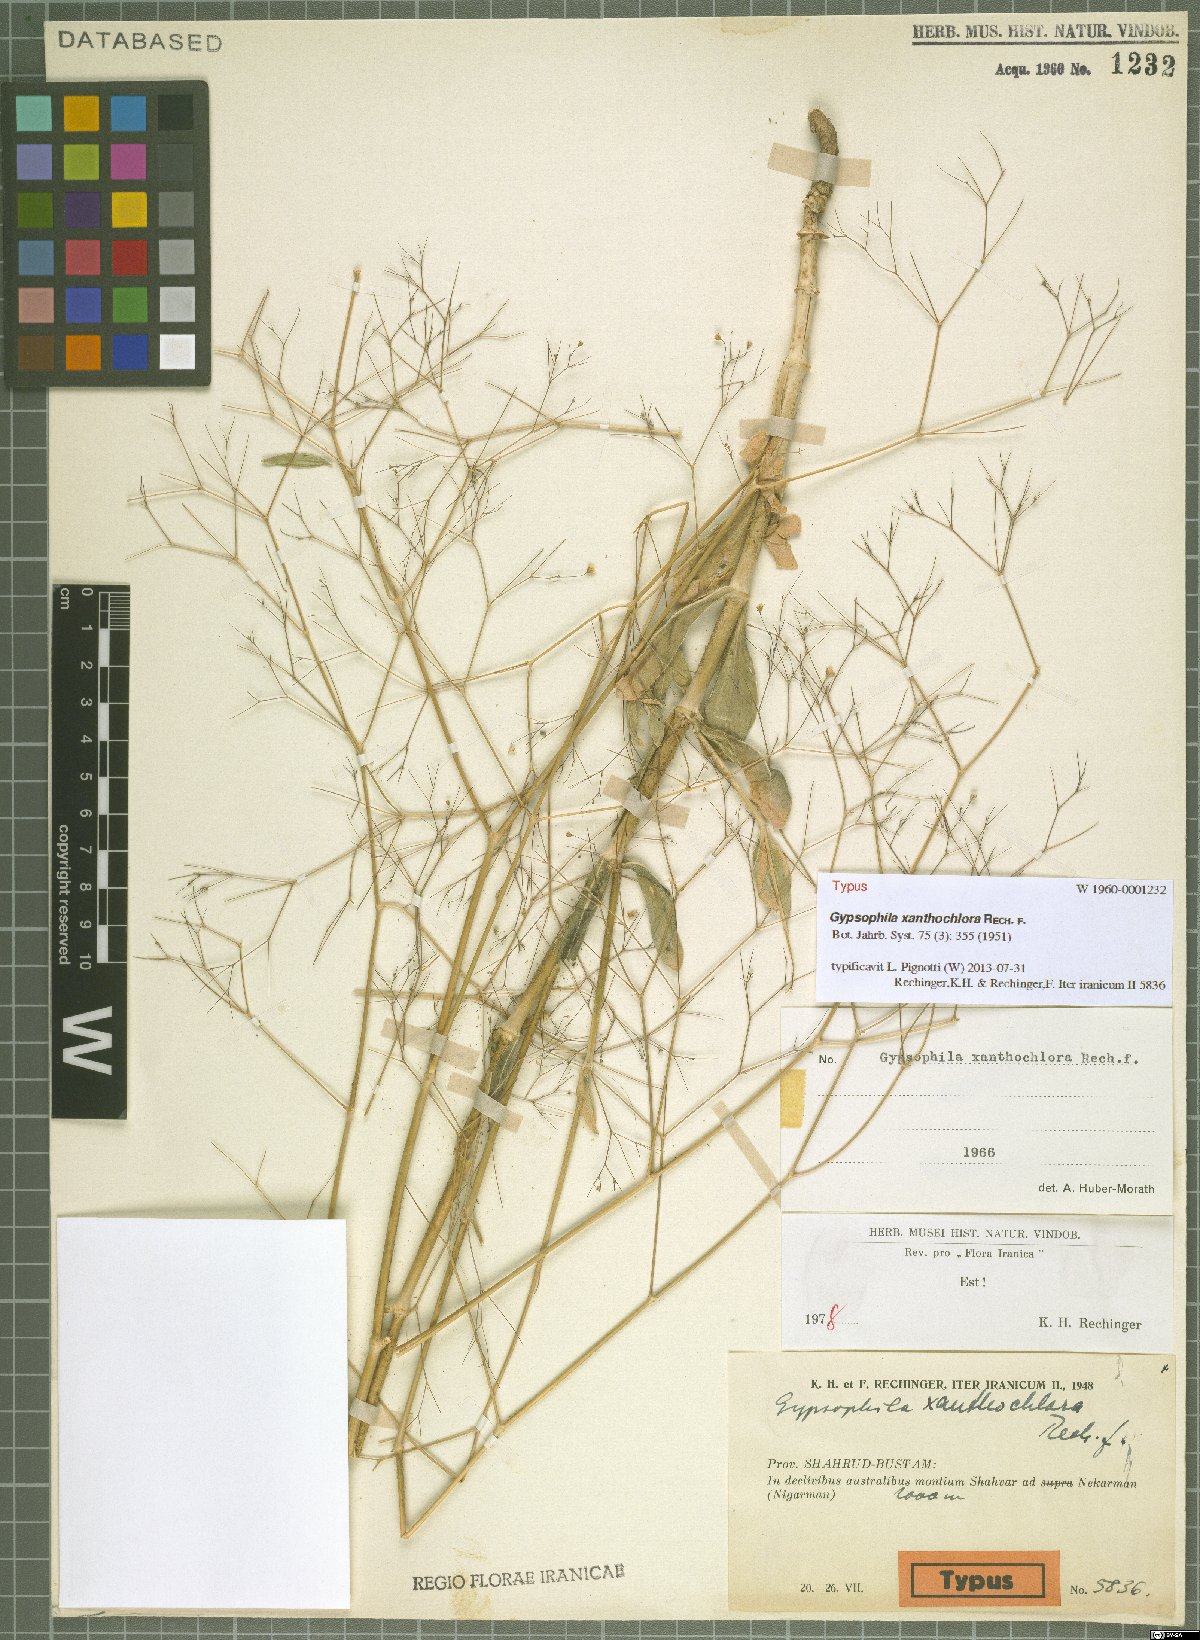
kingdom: Plantae
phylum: Tracheophyta
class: Magnoliopsida
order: Caryophyllales
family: Caryophyllaceae
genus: Gypsophila
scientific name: Gypsophila xanthochlora
